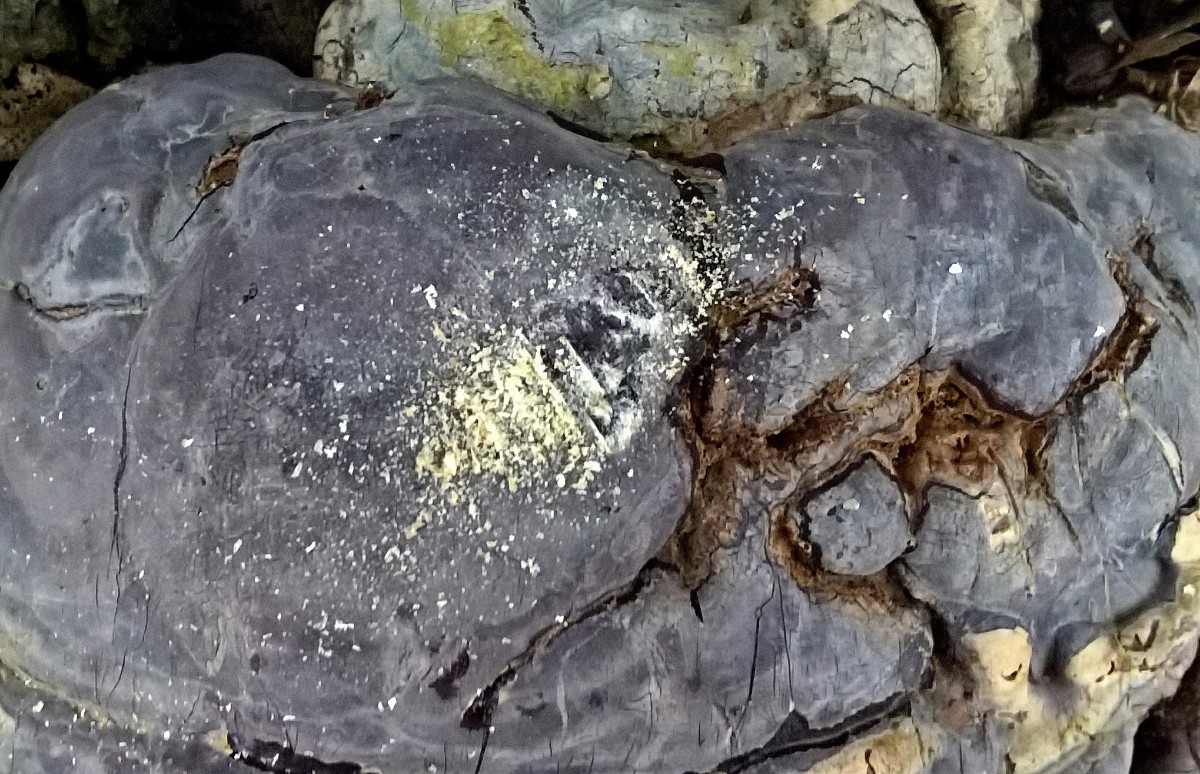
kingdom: Fungi
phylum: Basidiomycota
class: Agaricomycetes
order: Polyporales
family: Polyporaceae
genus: Ganoderma
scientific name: Ganoderma pfeifferi
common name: kobberrød lakporesvamp
